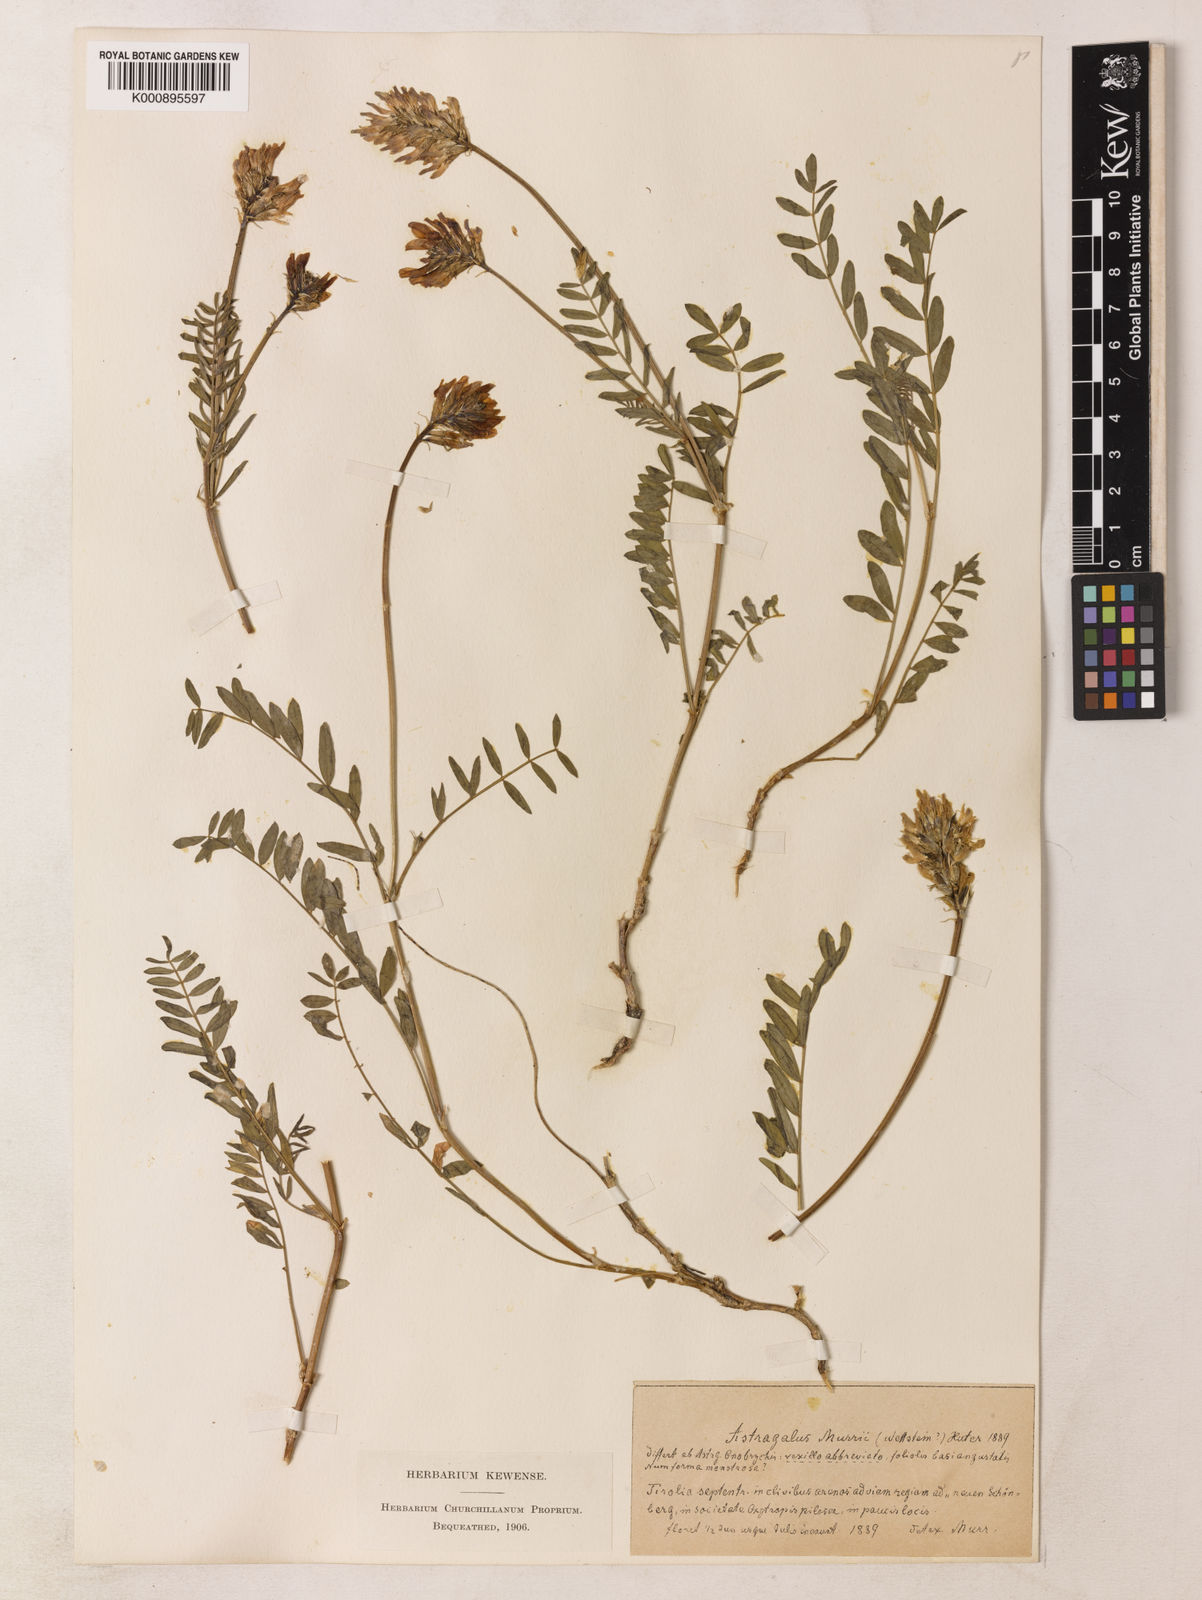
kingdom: Plantae
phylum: Tracheophyta
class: Magnoliopsida
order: Fabales
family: Fabaceae
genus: Astragalus
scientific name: Astragalus leontinus
